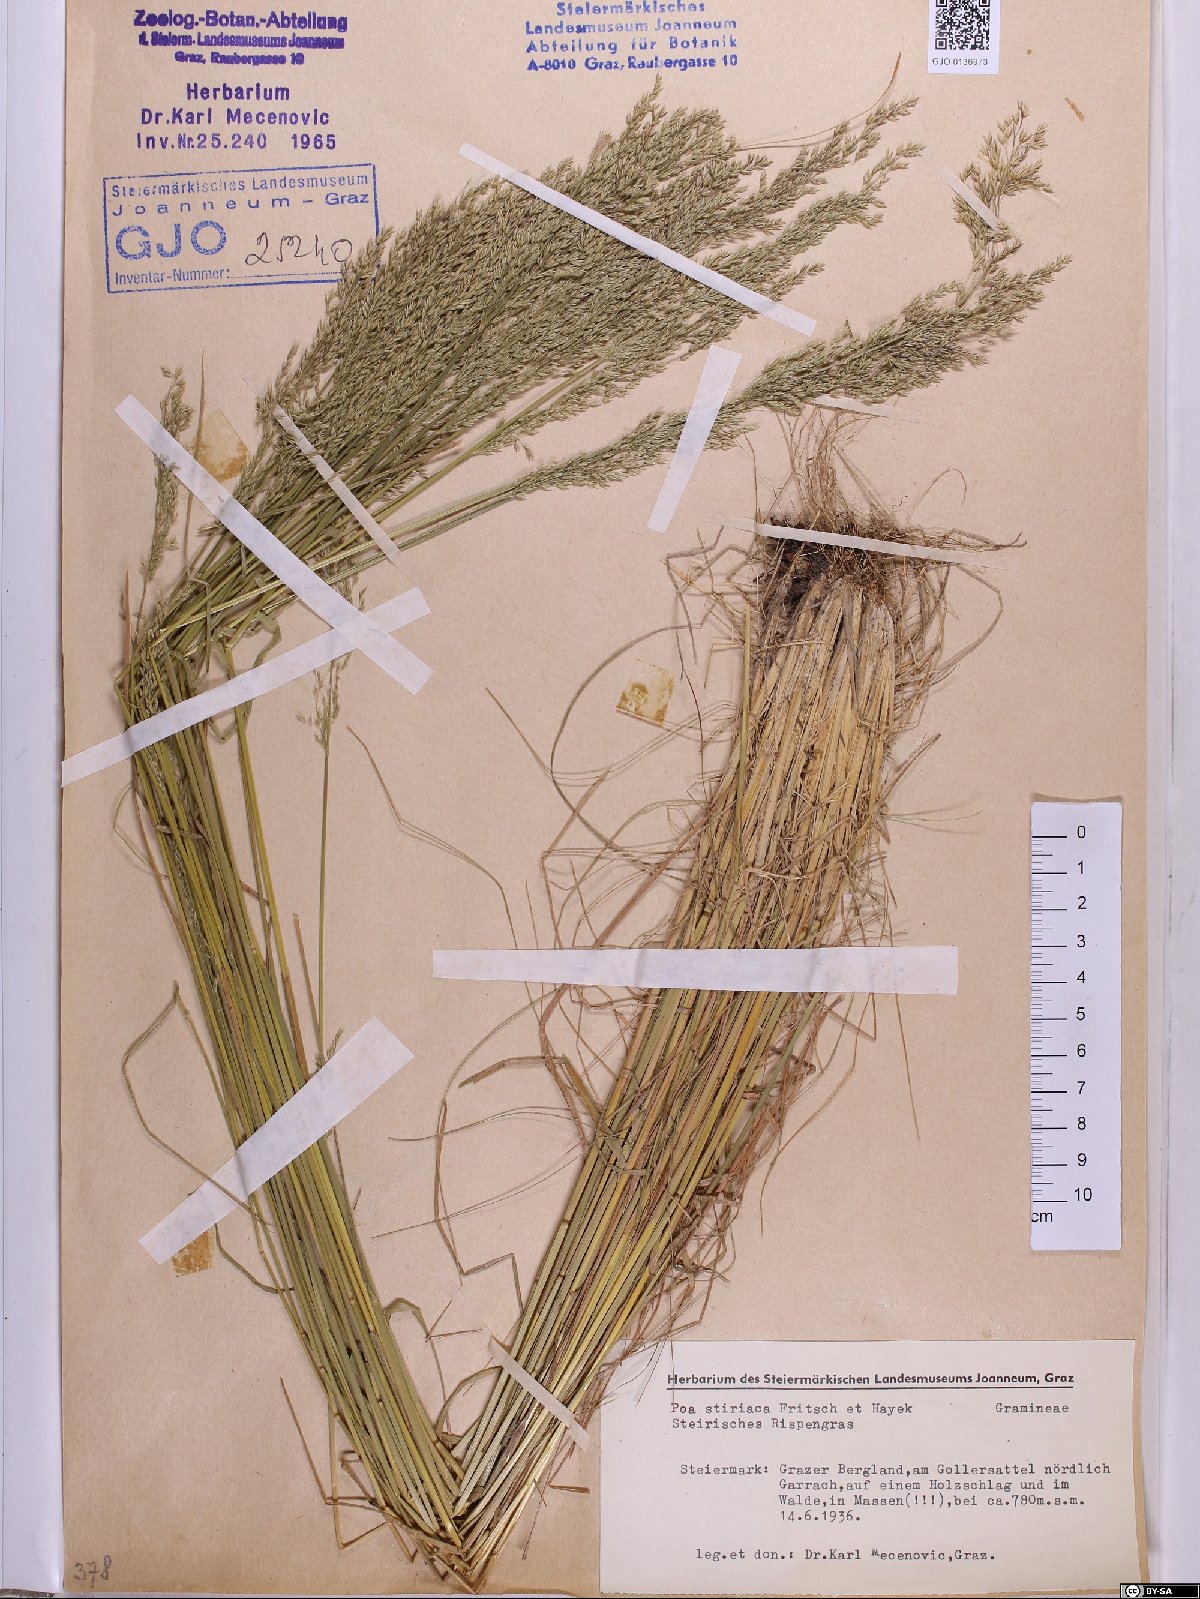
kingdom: Plantae
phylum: Tracheophyta
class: Liliopsida
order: Poales
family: Poaceae
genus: Poa
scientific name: Poa stiriaca
